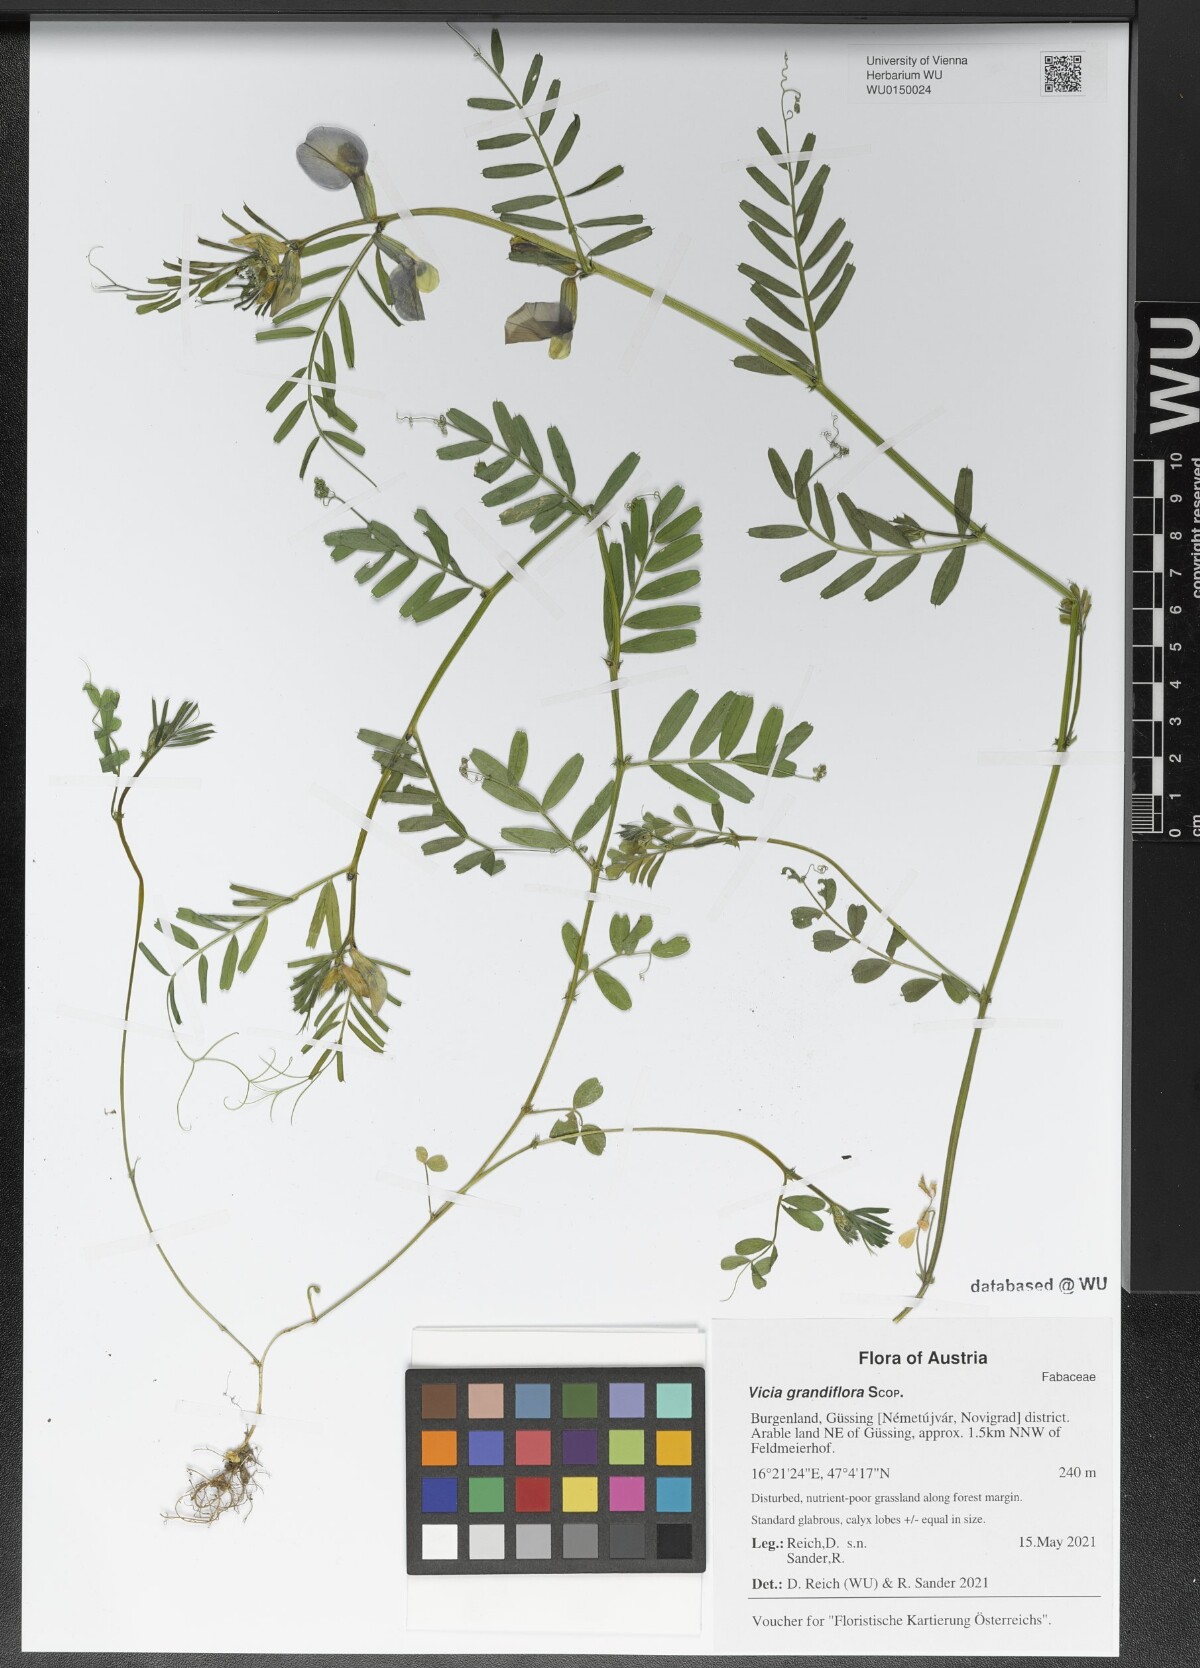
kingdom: Plantae
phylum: Tracheophyta
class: Magnoliopsida
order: Fabales
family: Fabaceae
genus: Vicia
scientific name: Vicia grandiflora
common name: Large yellow vetch
